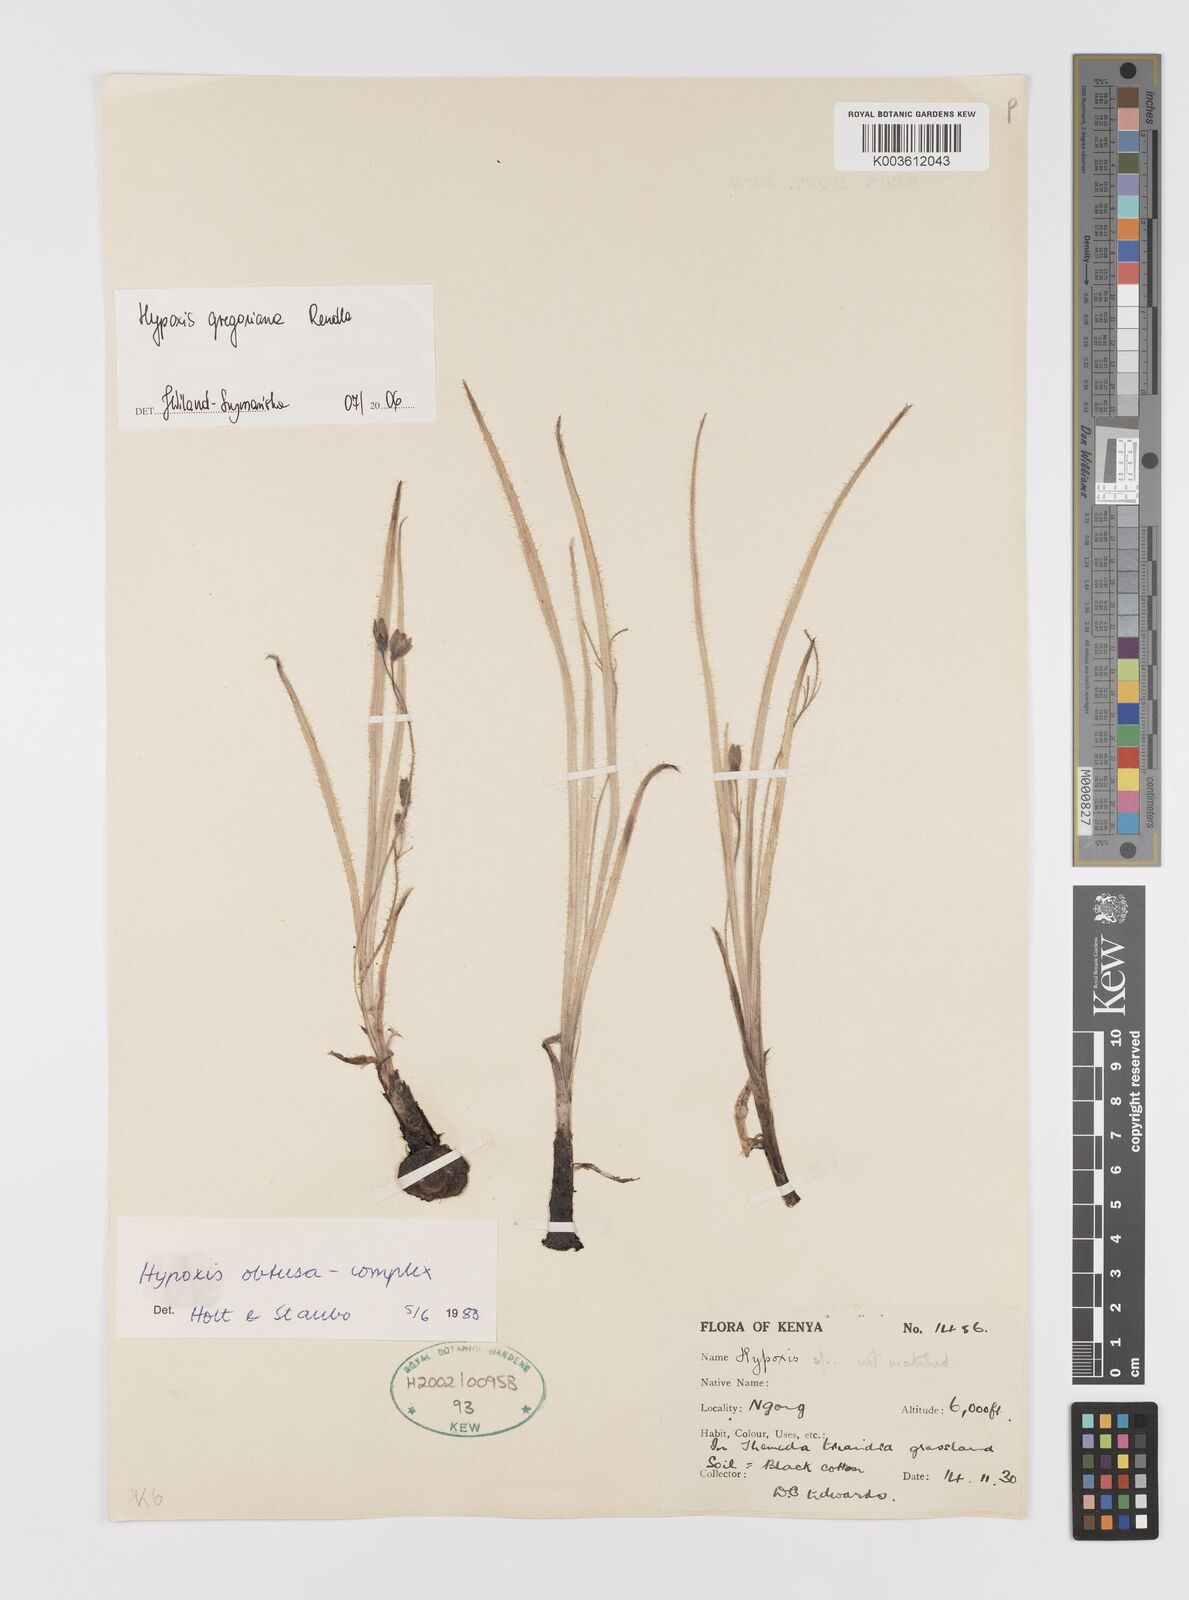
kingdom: Plantae
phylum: Tracheophyta
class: Liliopsida
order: Asparagales
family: Hypoxidaceae
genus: Hypoxis
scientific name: Hypoxis gregoriana
